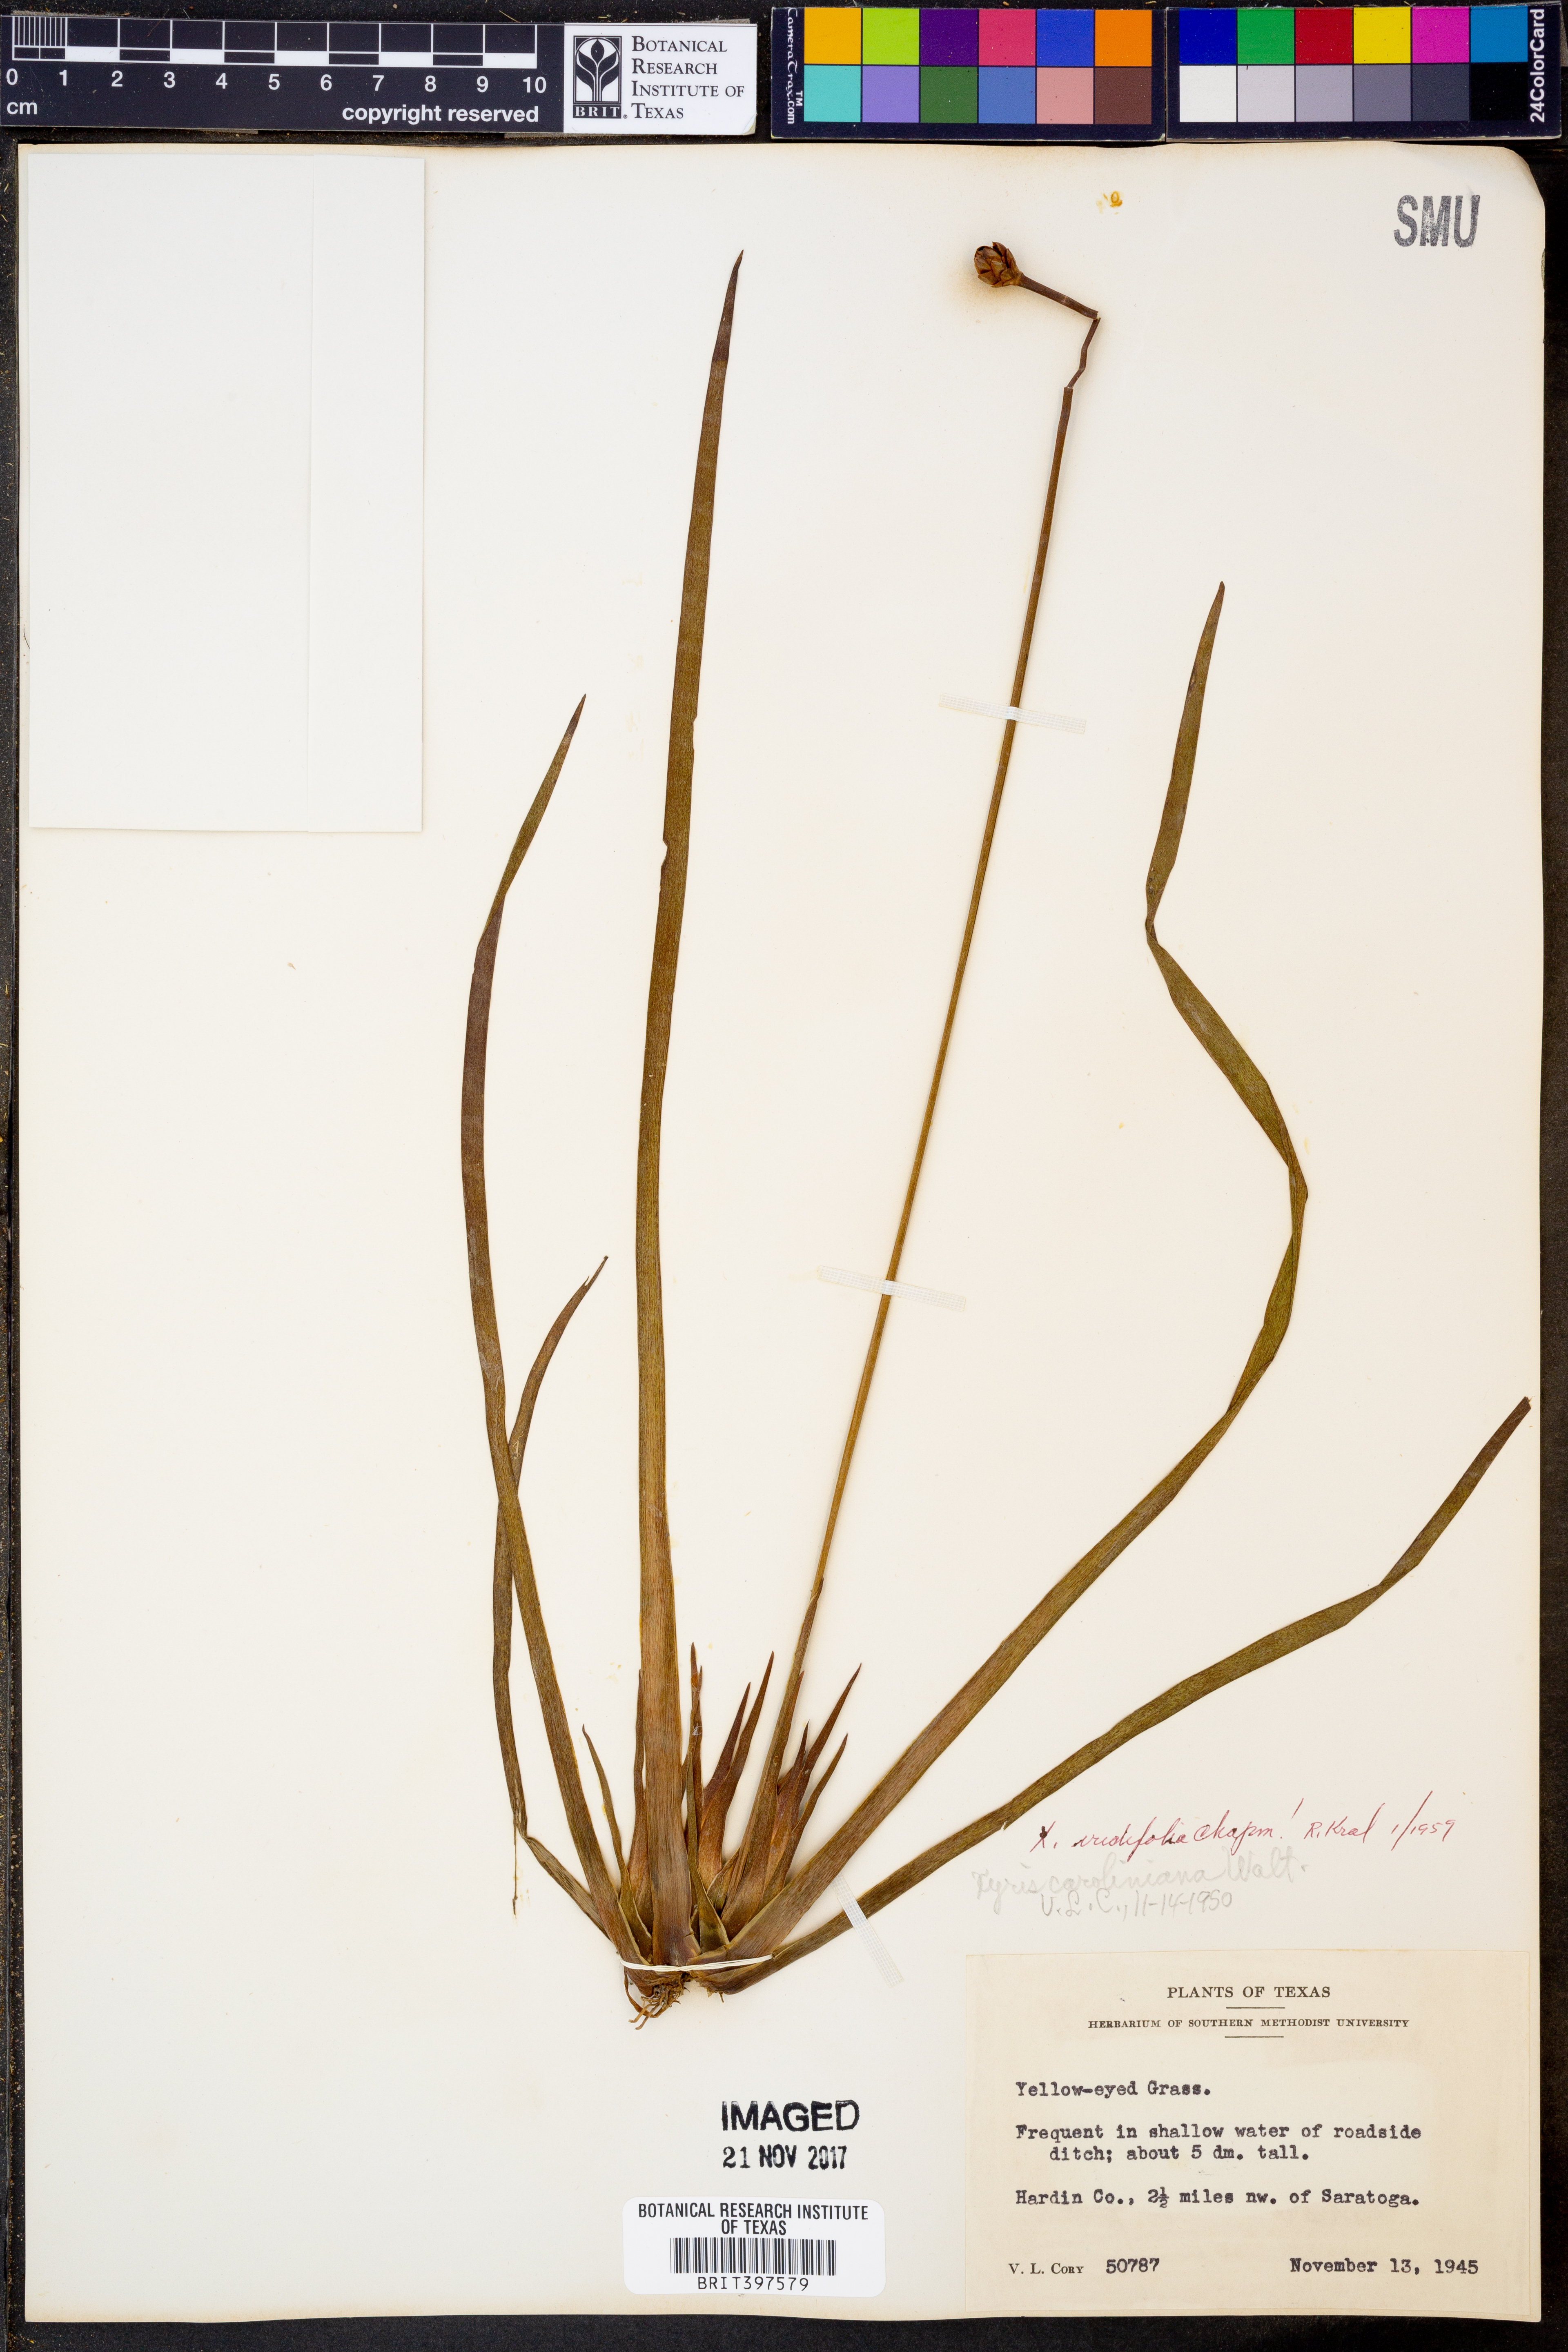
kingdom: Plantae
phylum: Tracheophyta
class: Liliopsida
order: Poales
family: Xyridaceae
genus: Xyris
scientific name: Xyris laxifolia
